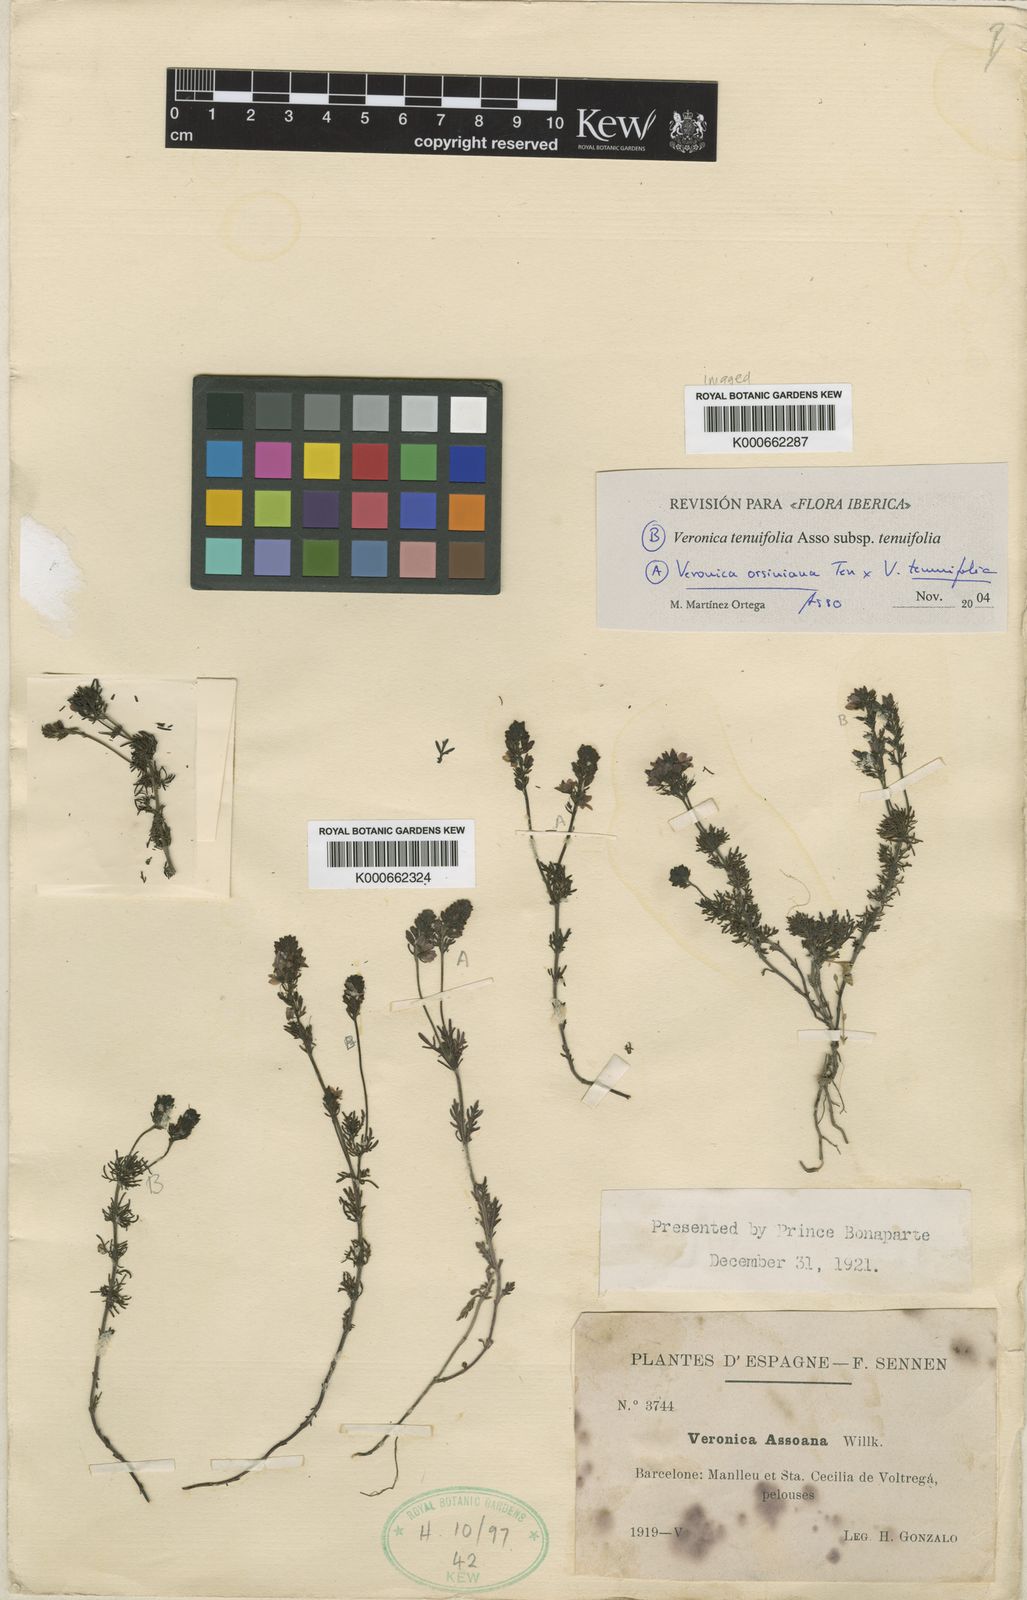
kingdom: Plantae
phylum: Tracheophyta
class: Magnoliopsida
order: Lamiales
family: Plantaginaceae
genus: Veronica
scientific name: Veronica tenuifolia
